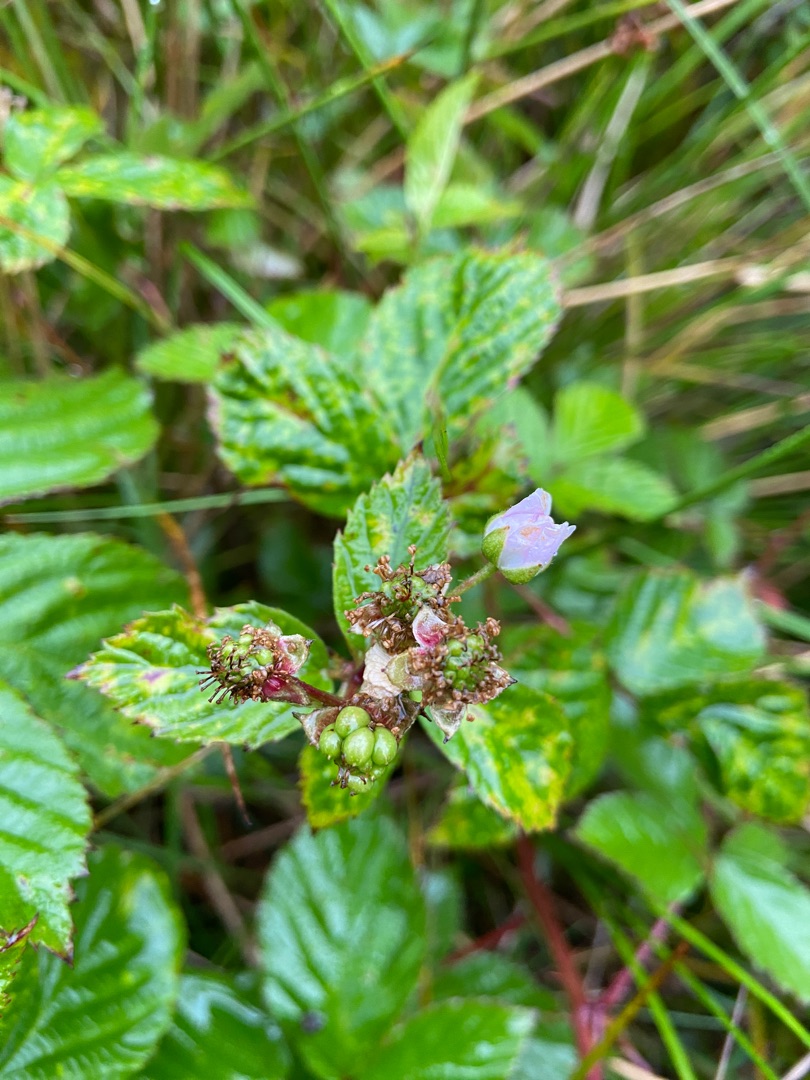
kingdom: Plantae
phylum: Tracheophyta
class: Magnoliopsida
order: Rosales
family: Rosaceae
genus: Rubus
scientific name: Rubus
